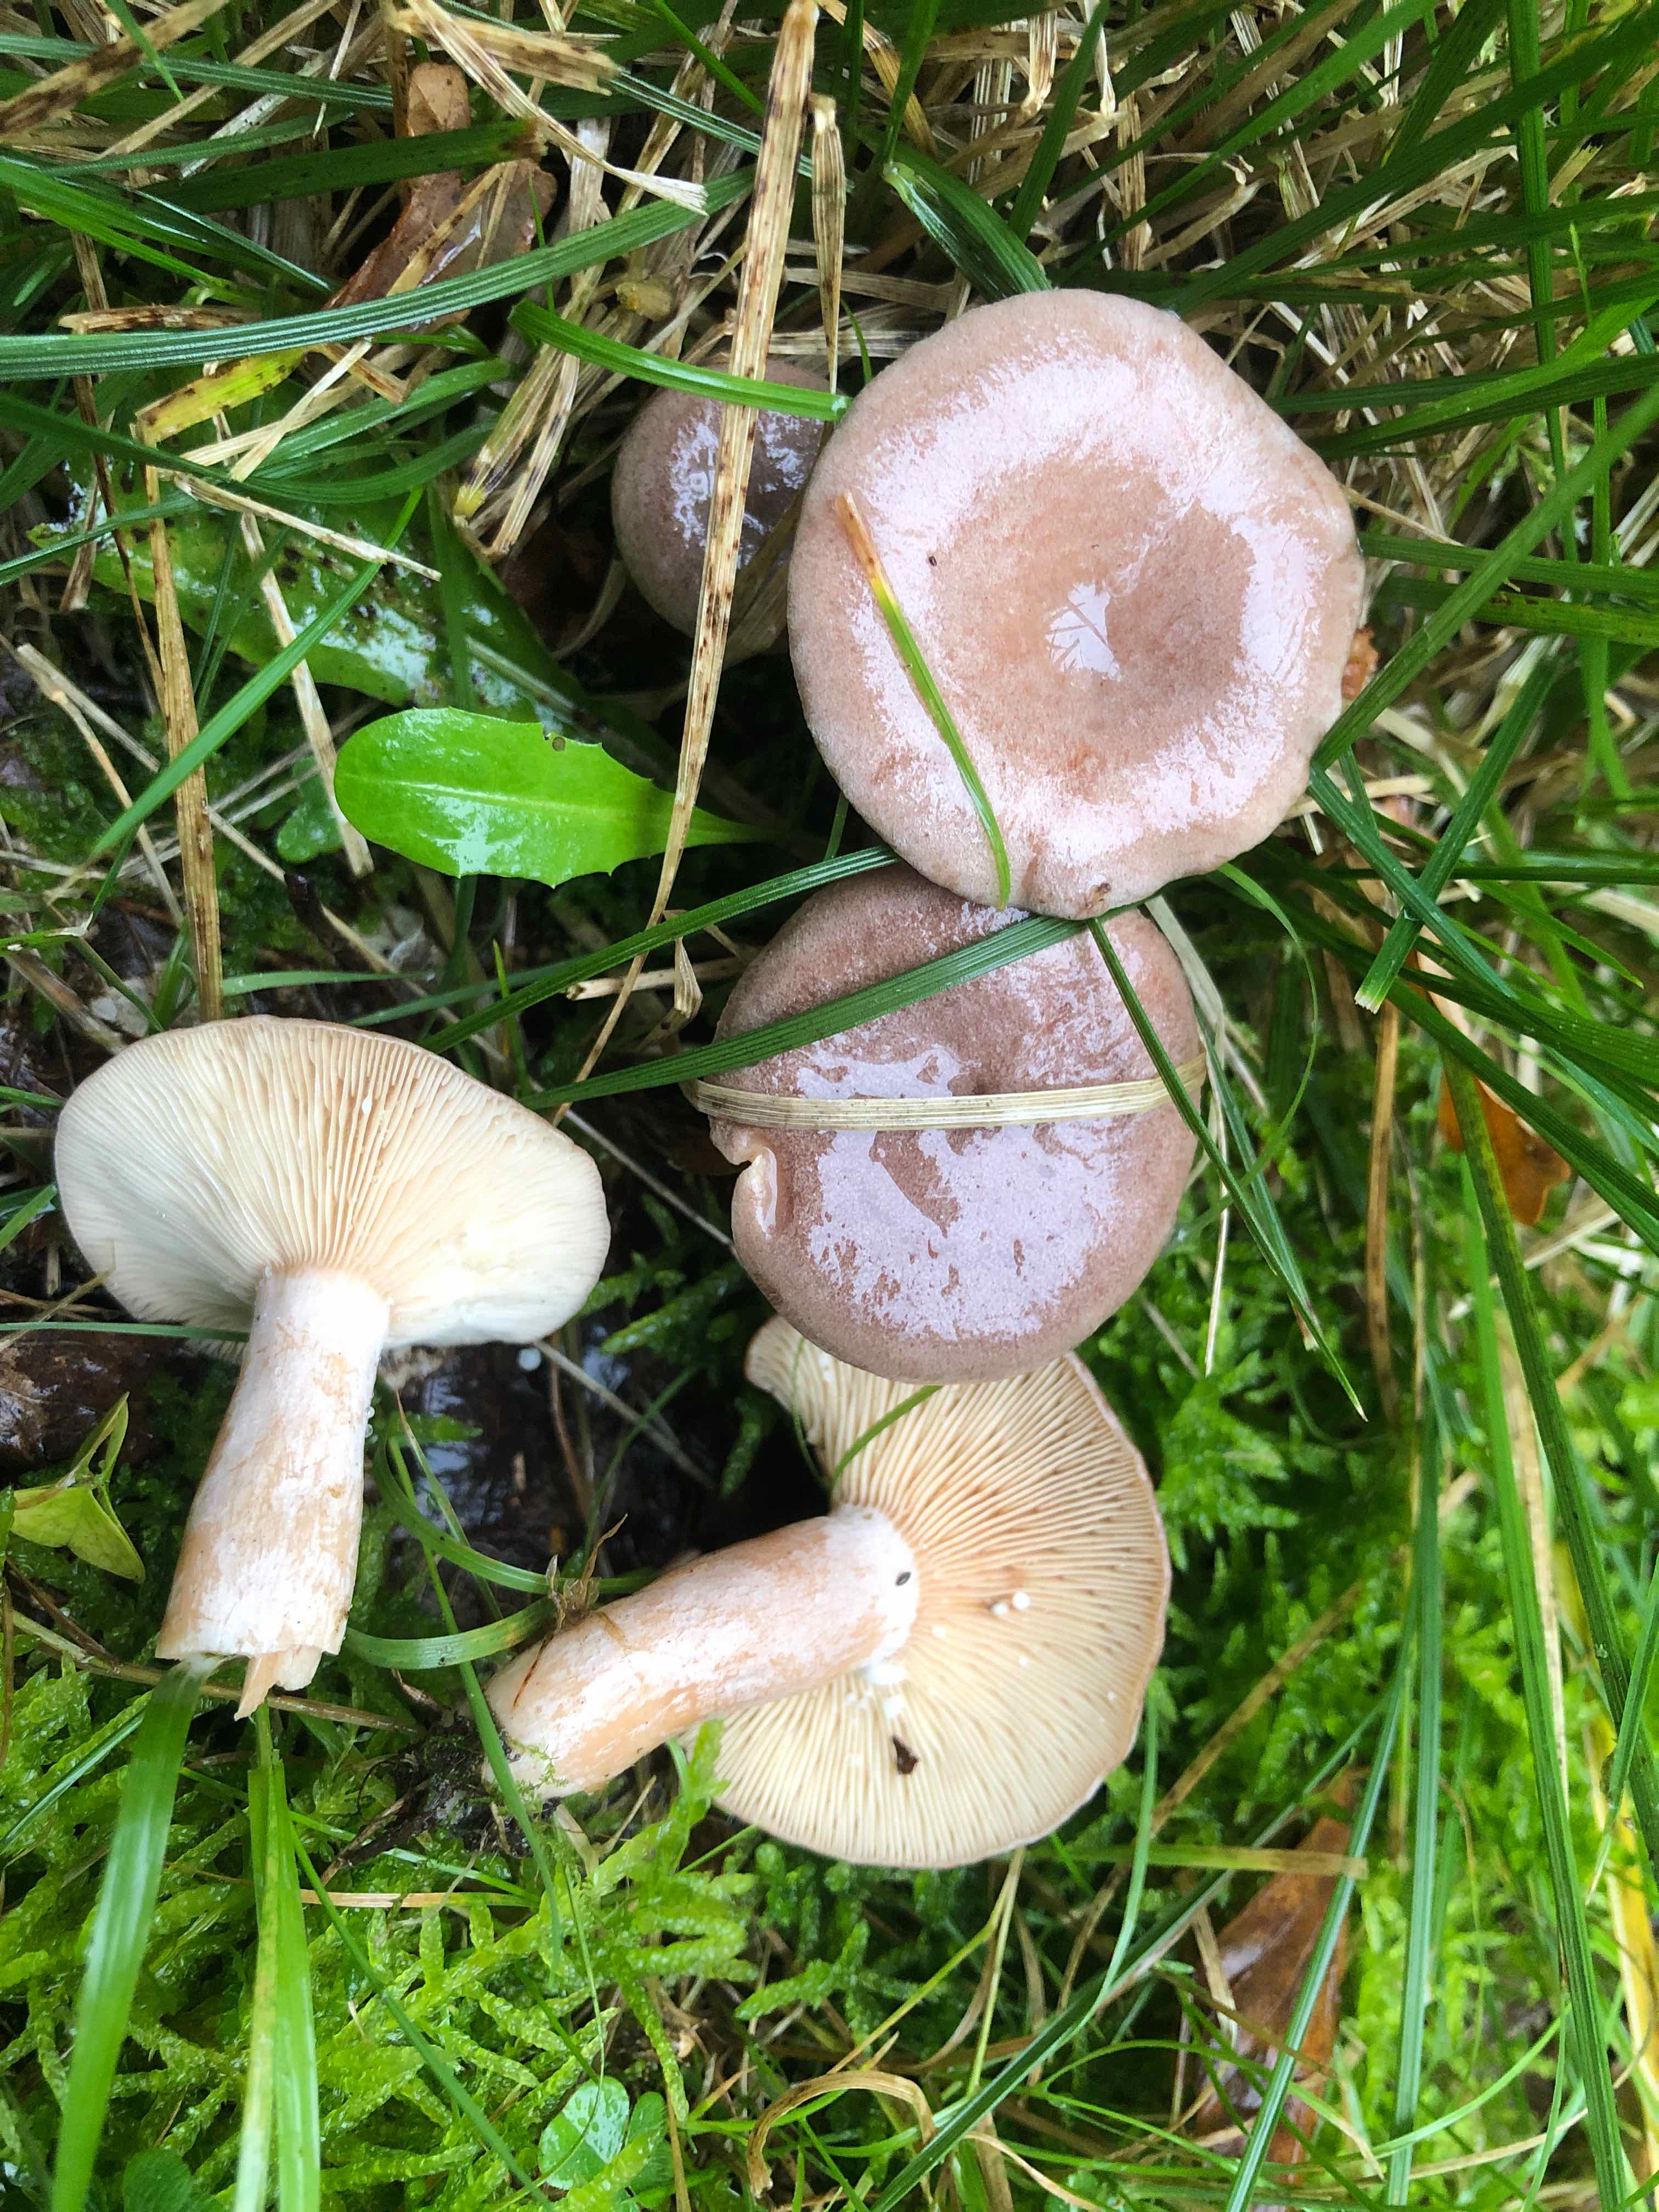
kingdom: Fungi
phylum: Basidiomycota
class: Agaricomycetes
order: Russulales
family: Russulaceae
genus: Lactarius
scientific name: Lactarius glyciosmus
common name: kokos-mælkehat
